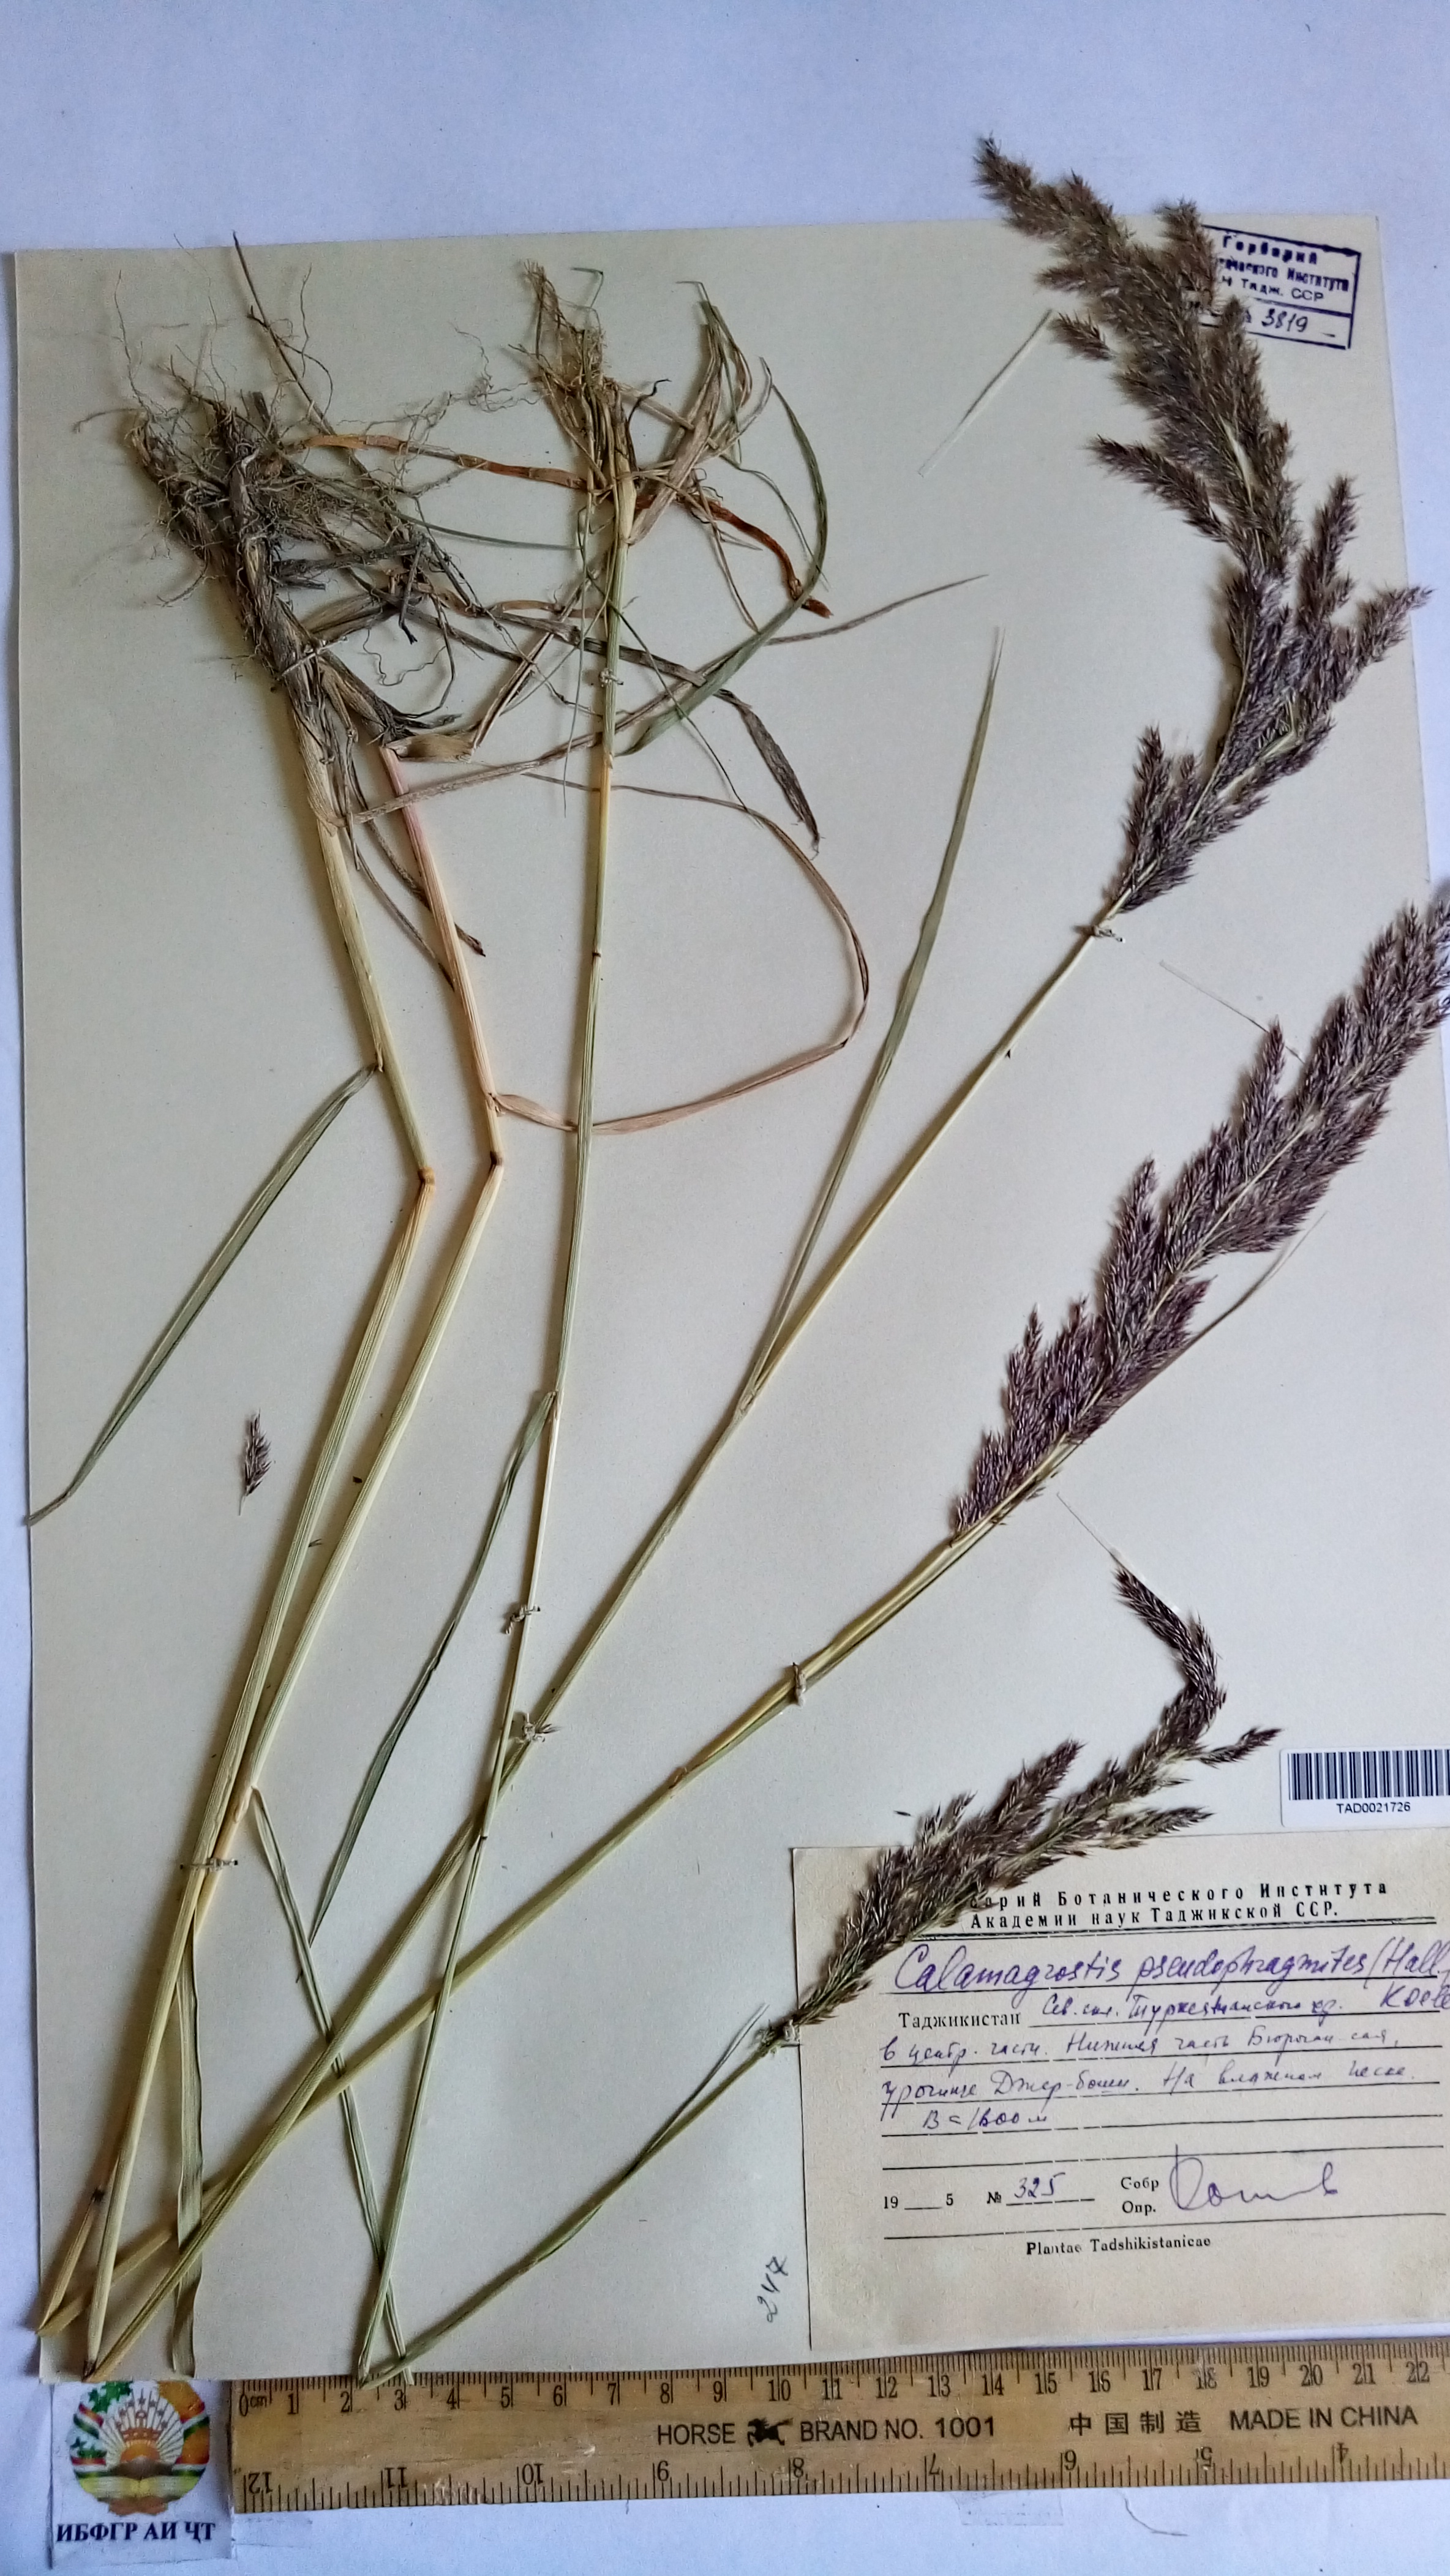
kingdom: Plantae
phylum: Tracheophyta
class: Liliopsida
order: Poales
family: Poaceae
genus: Calamagrostis
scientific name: Calamagrostis pseudophragmites
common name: Coastal small-reed
